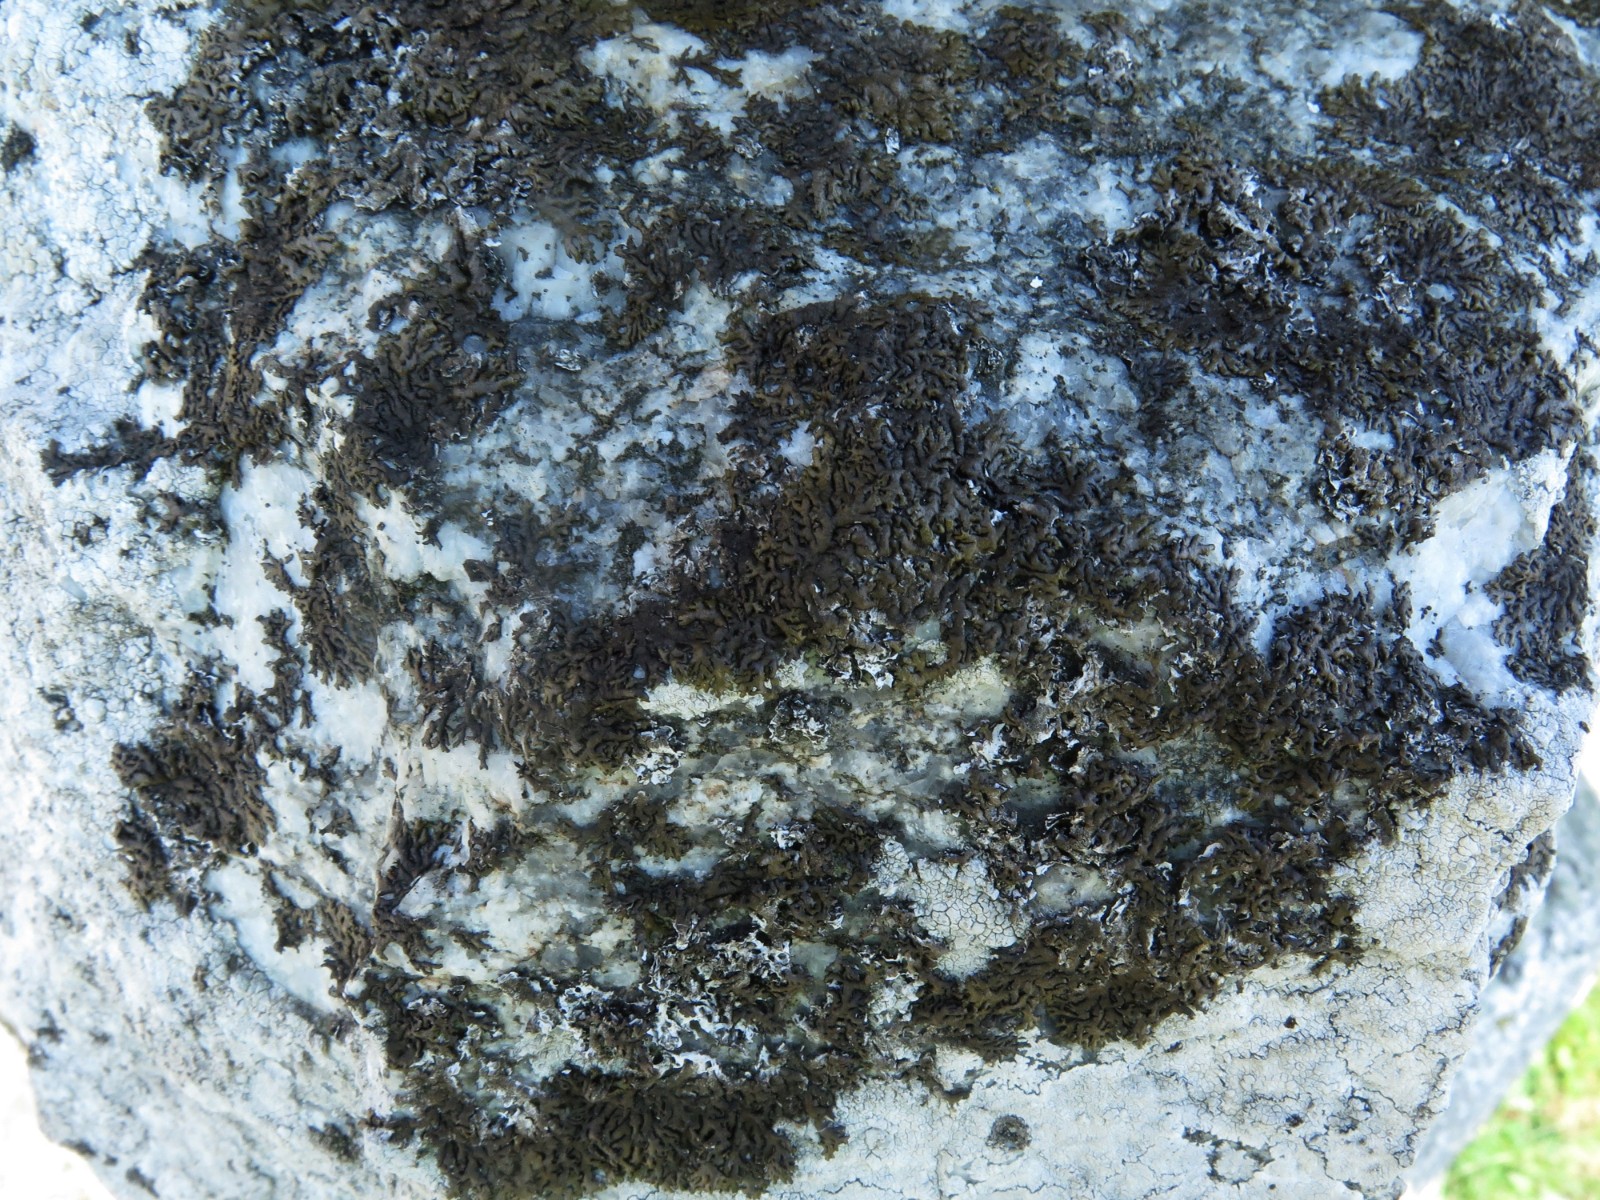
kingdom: Fungi
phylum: Ascomycota
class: Lecanoromycetes
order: Caliciales
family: Physciaceae
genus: Kurokawia
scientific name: Kurokawia runcinata
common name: brun frynselav
